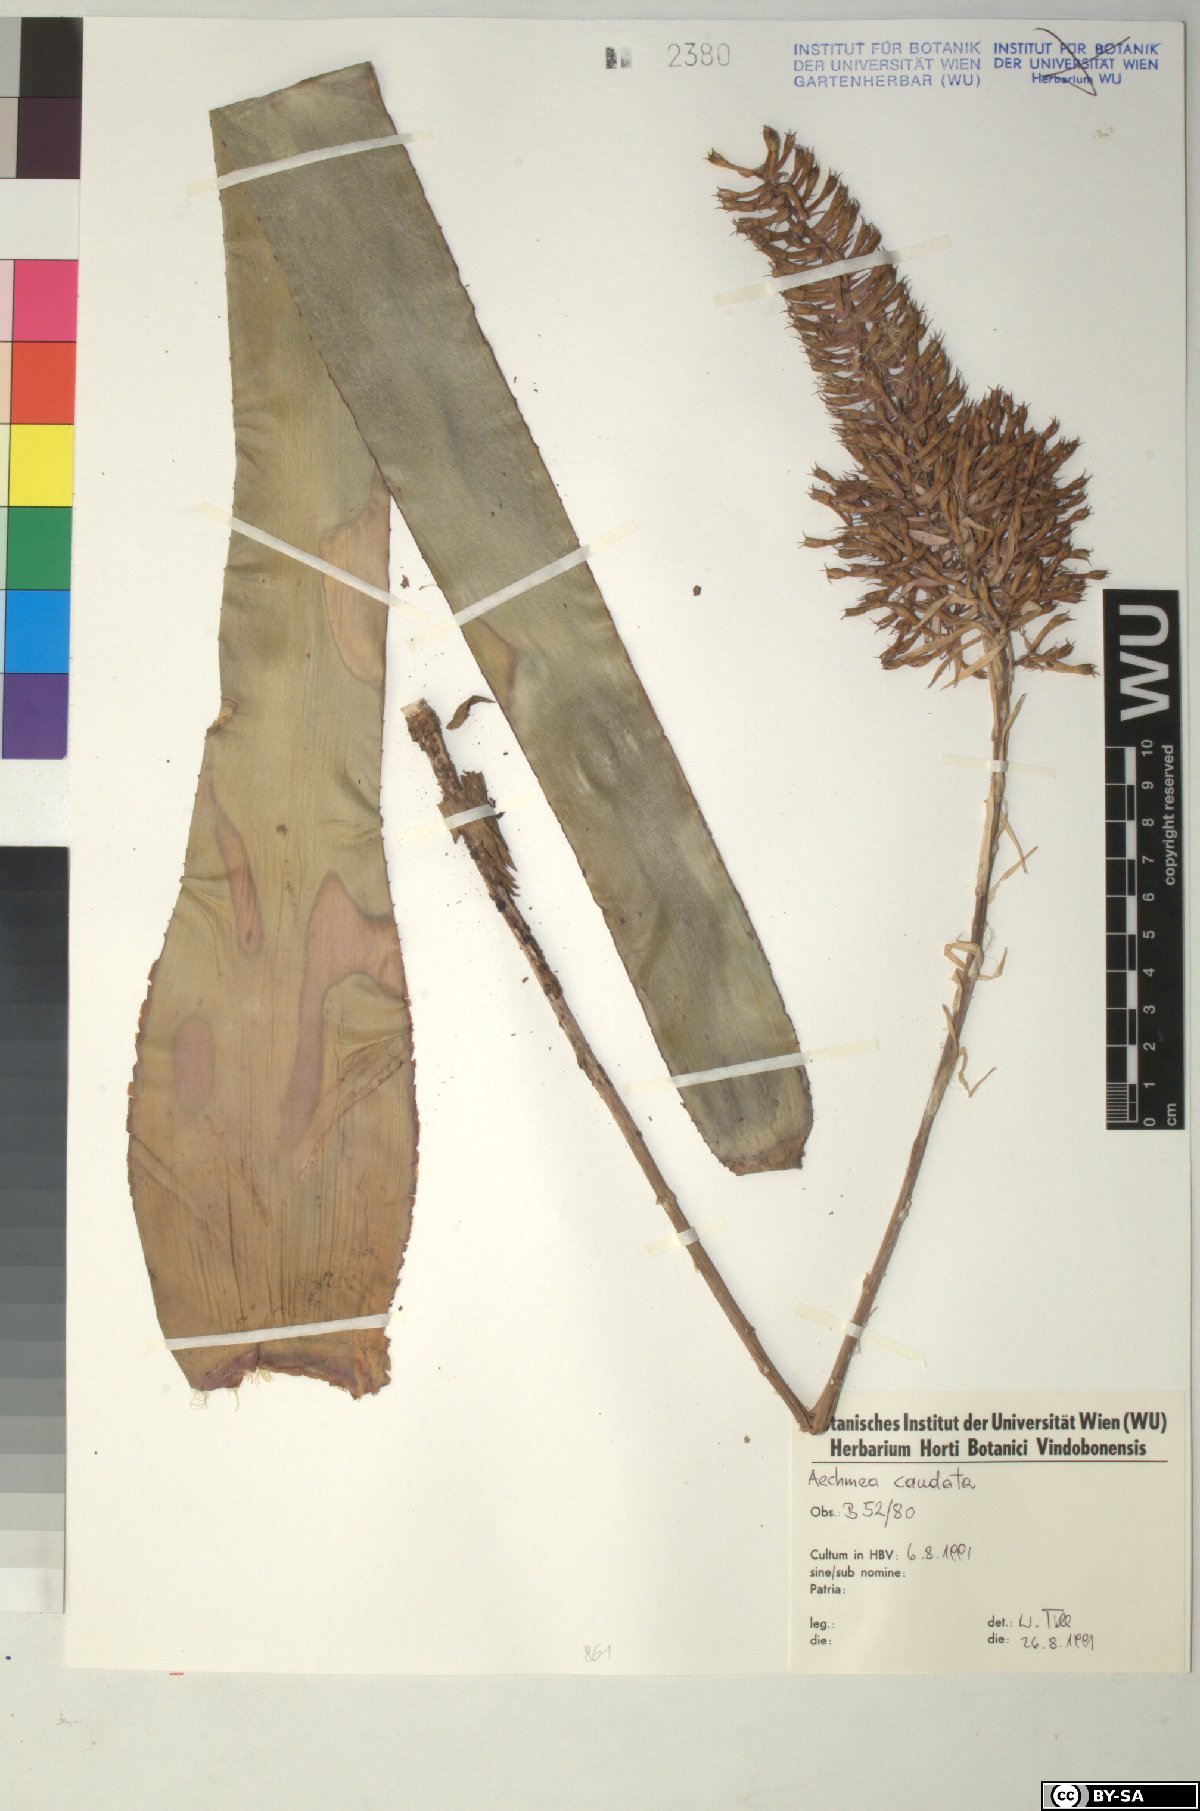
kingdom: Plantae
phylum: Tracheophyta
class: Liliopsida
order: Poales
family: Bromeliaceae
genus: Aechmea
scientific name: Aechmea
